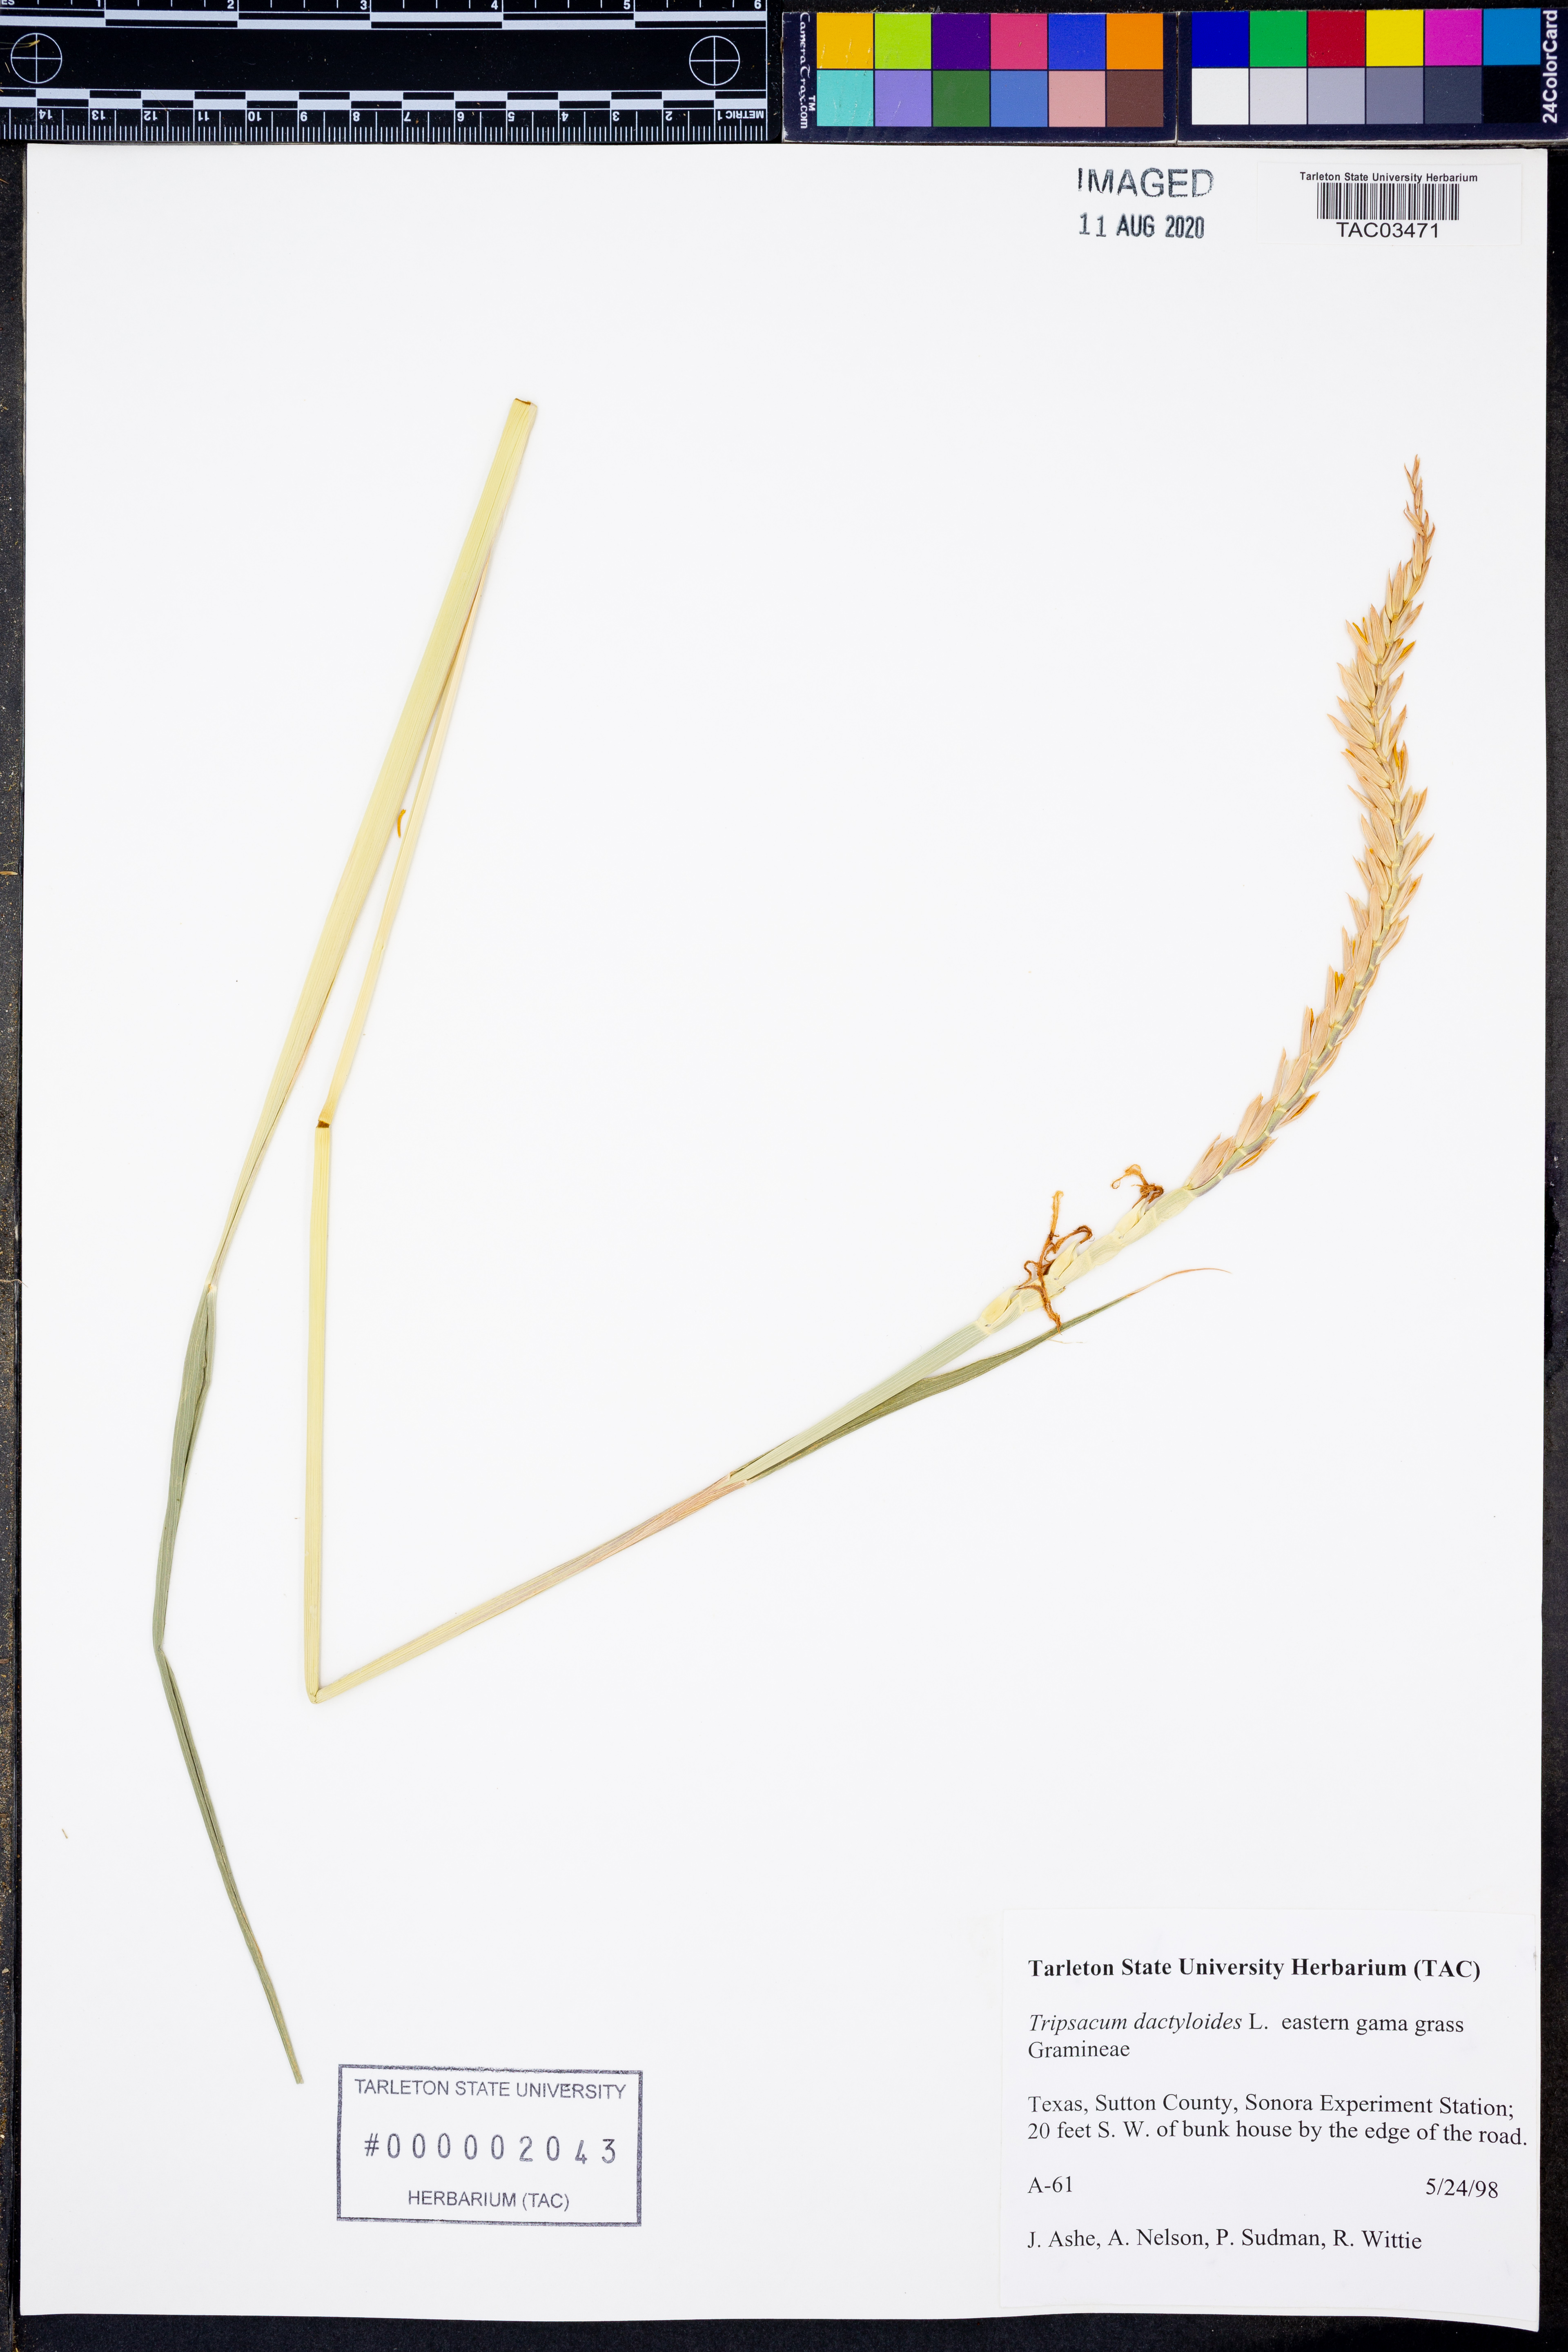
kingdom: Plantae
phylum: Tracheophyta
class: Liliopsida
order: Poales
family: Poaceae
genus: Tripsacum
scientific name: Tripsacum dactyloides
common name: Buffalo-grass
